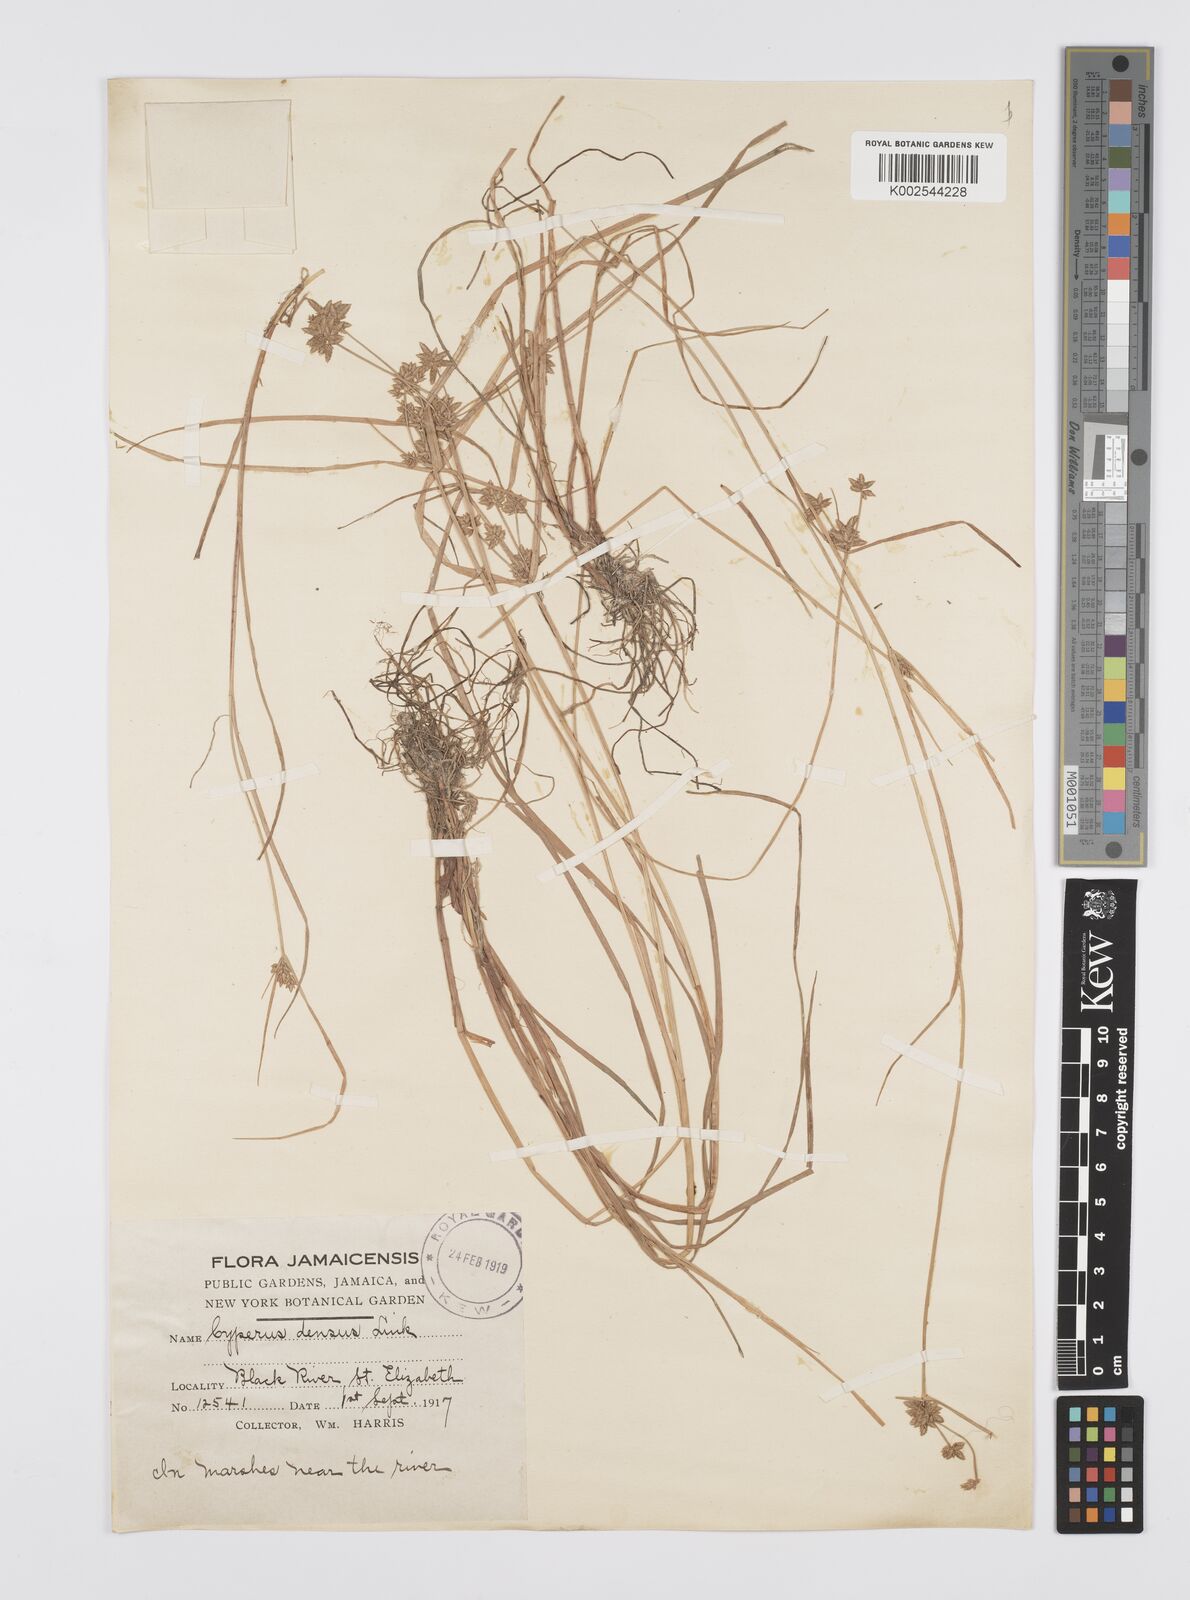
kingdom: Plantae
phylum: Tracheophyta
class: Liliopsida
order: Poales
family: Cyperaceae
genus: Cyperus
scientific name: Cyperus
